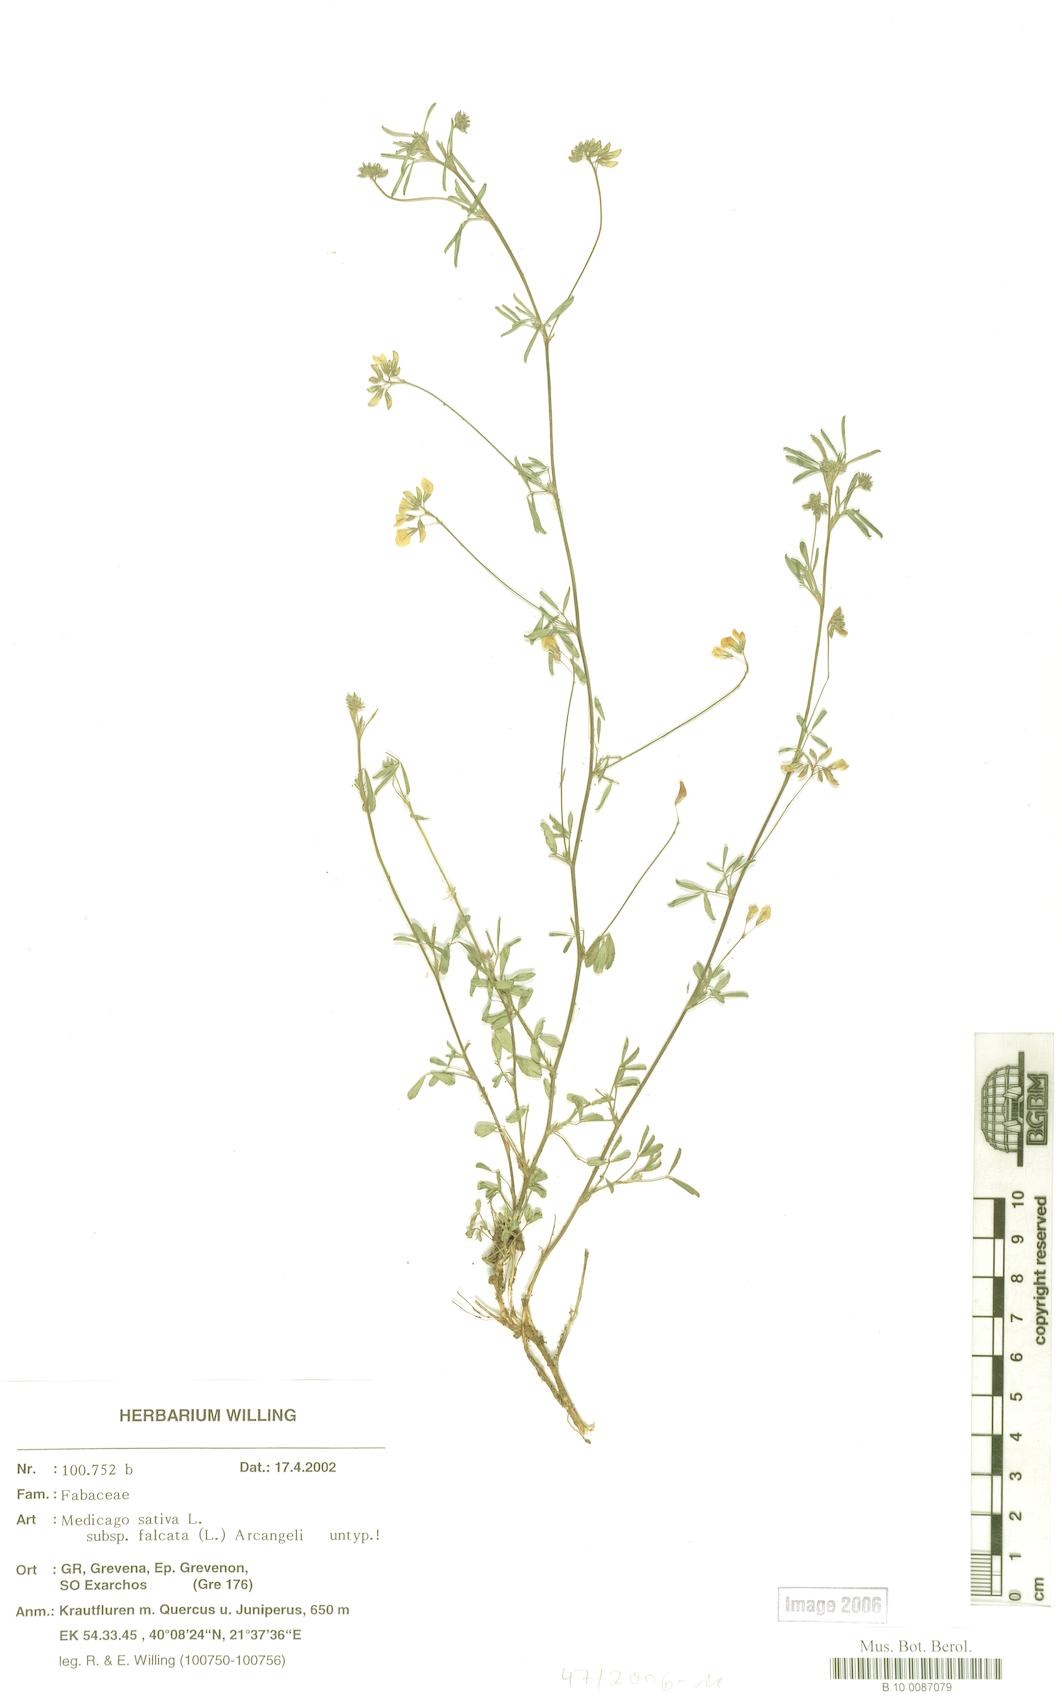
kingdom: Plantae
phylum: Tracheophyta
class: Magnoliopsida
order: Fabales
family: Fabaceae
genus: Medicago
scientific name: Medicago falcata
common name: Sickle medick
